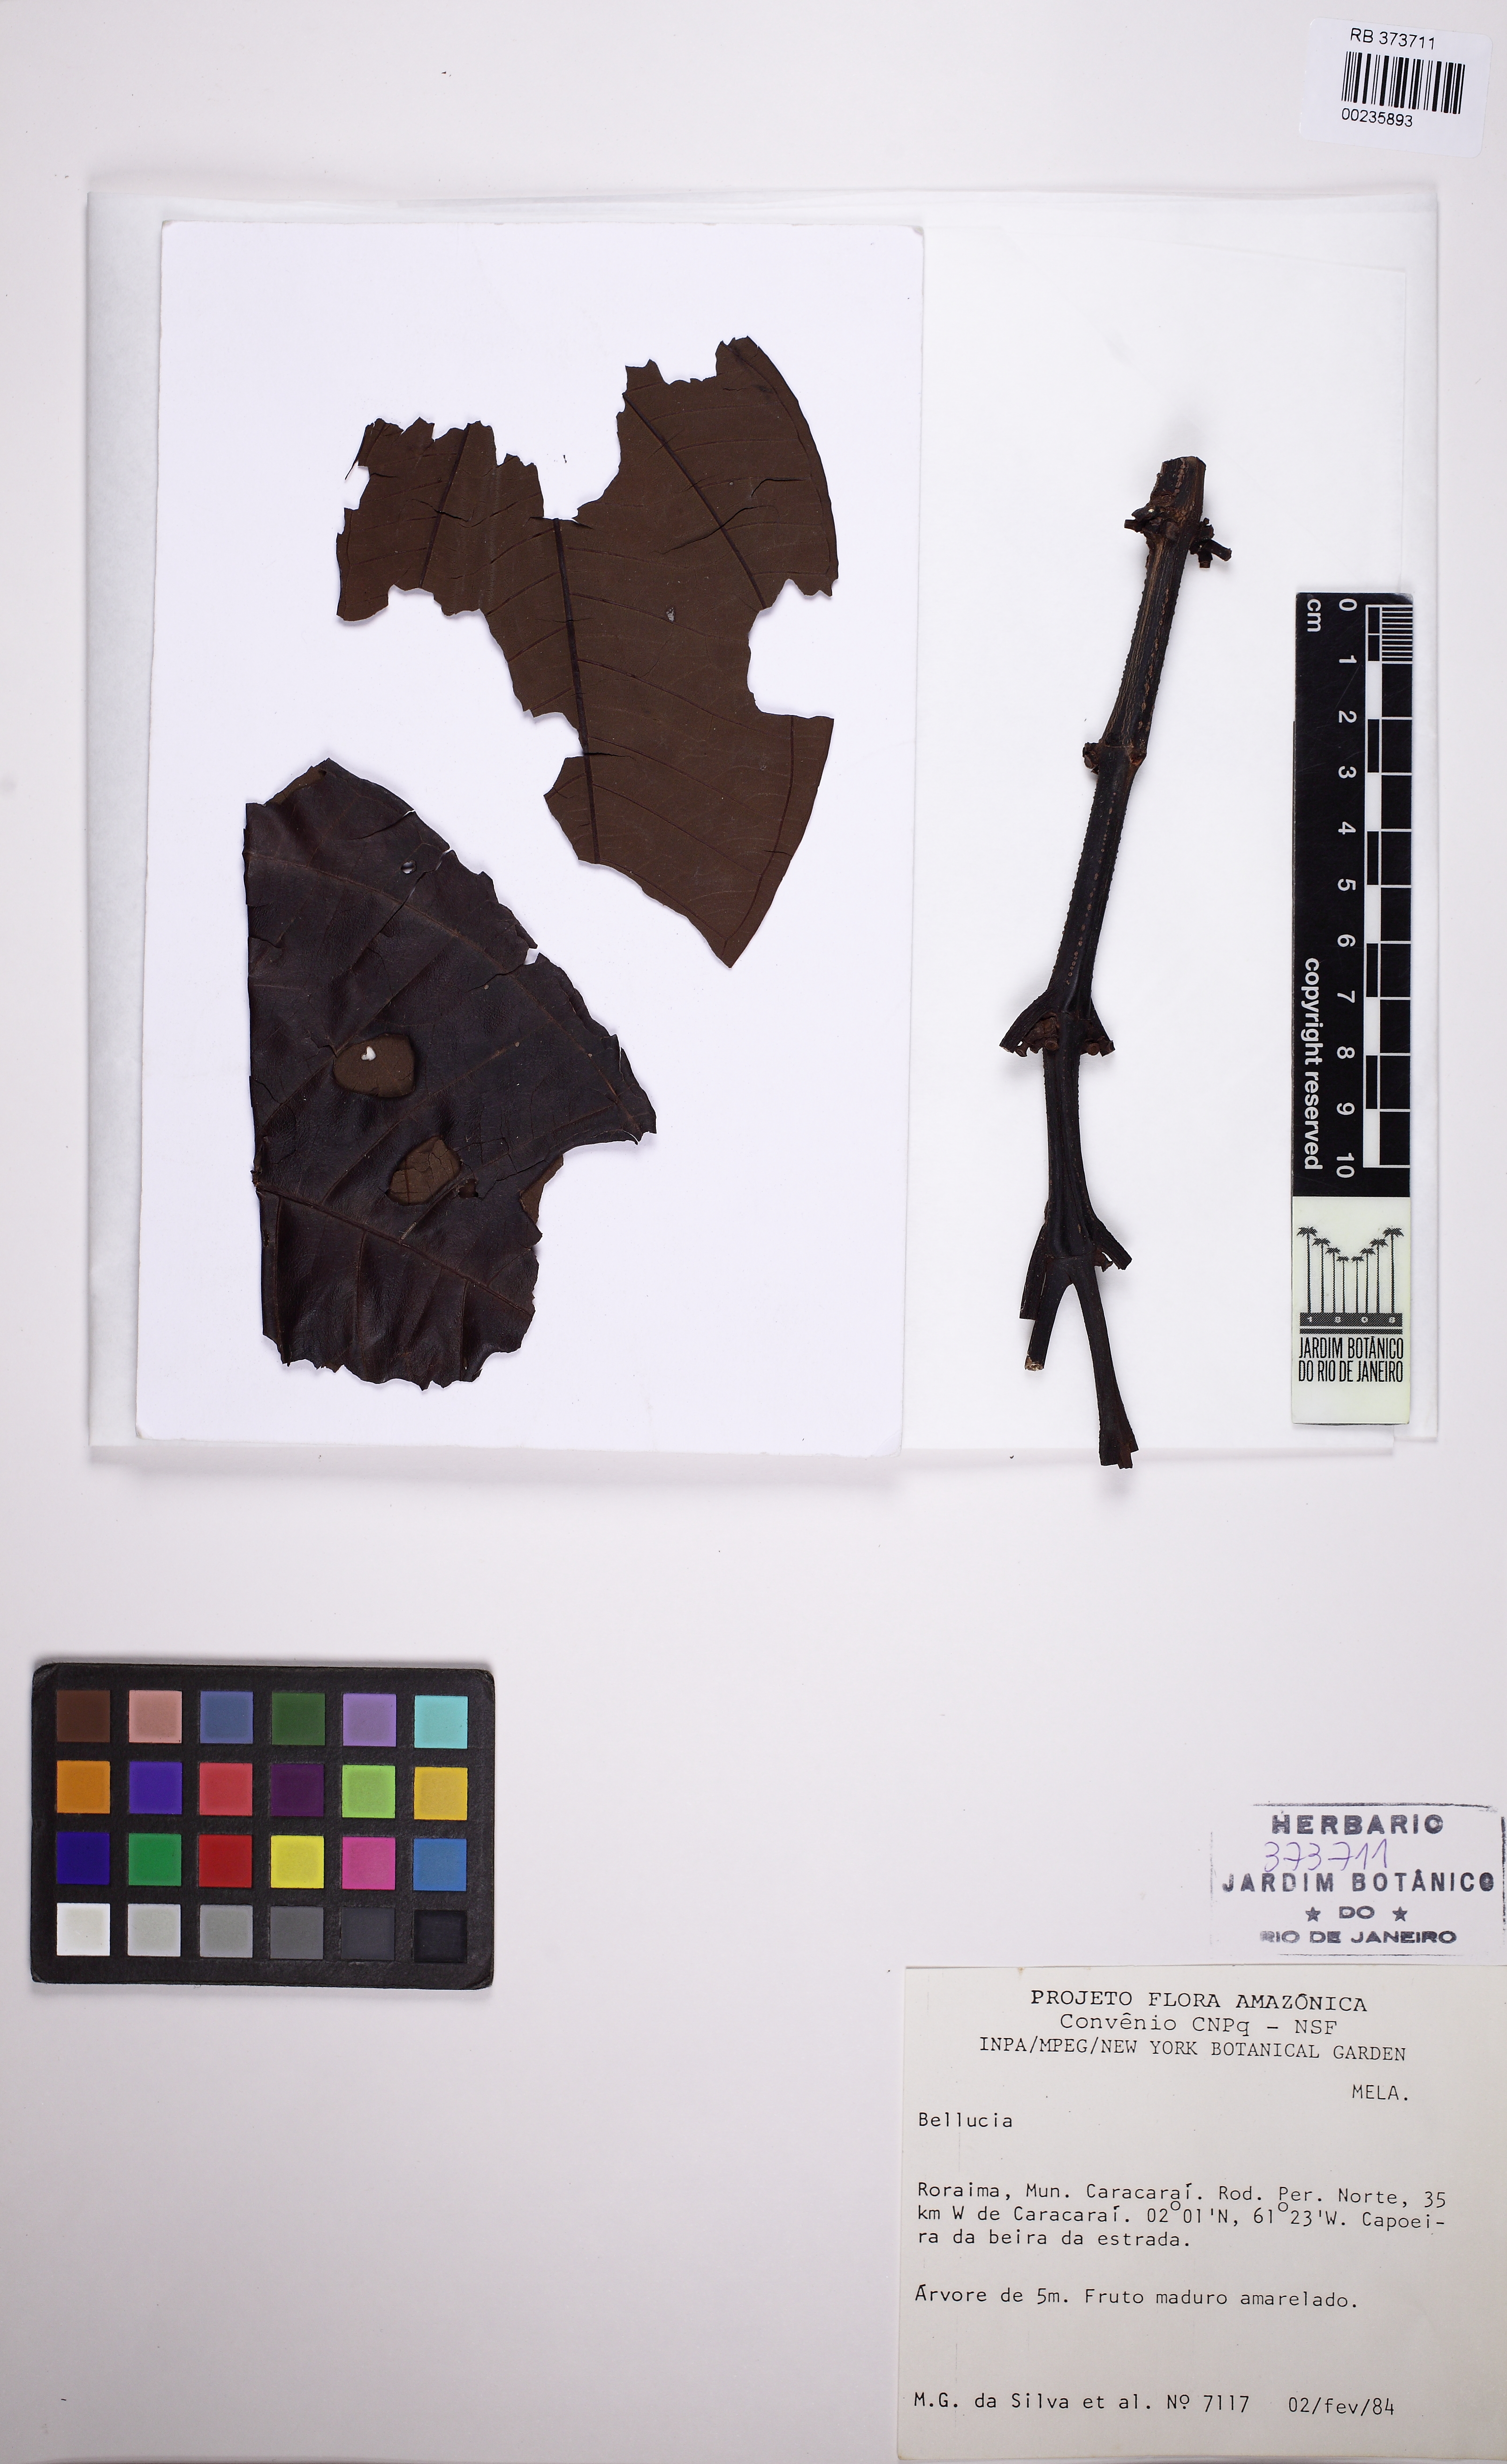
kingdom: Plantae
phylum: Tracheophyta
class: Magnoliopsida
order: Myrtales
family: Melastomataceae
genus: Bellucia
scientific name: Bellucia
